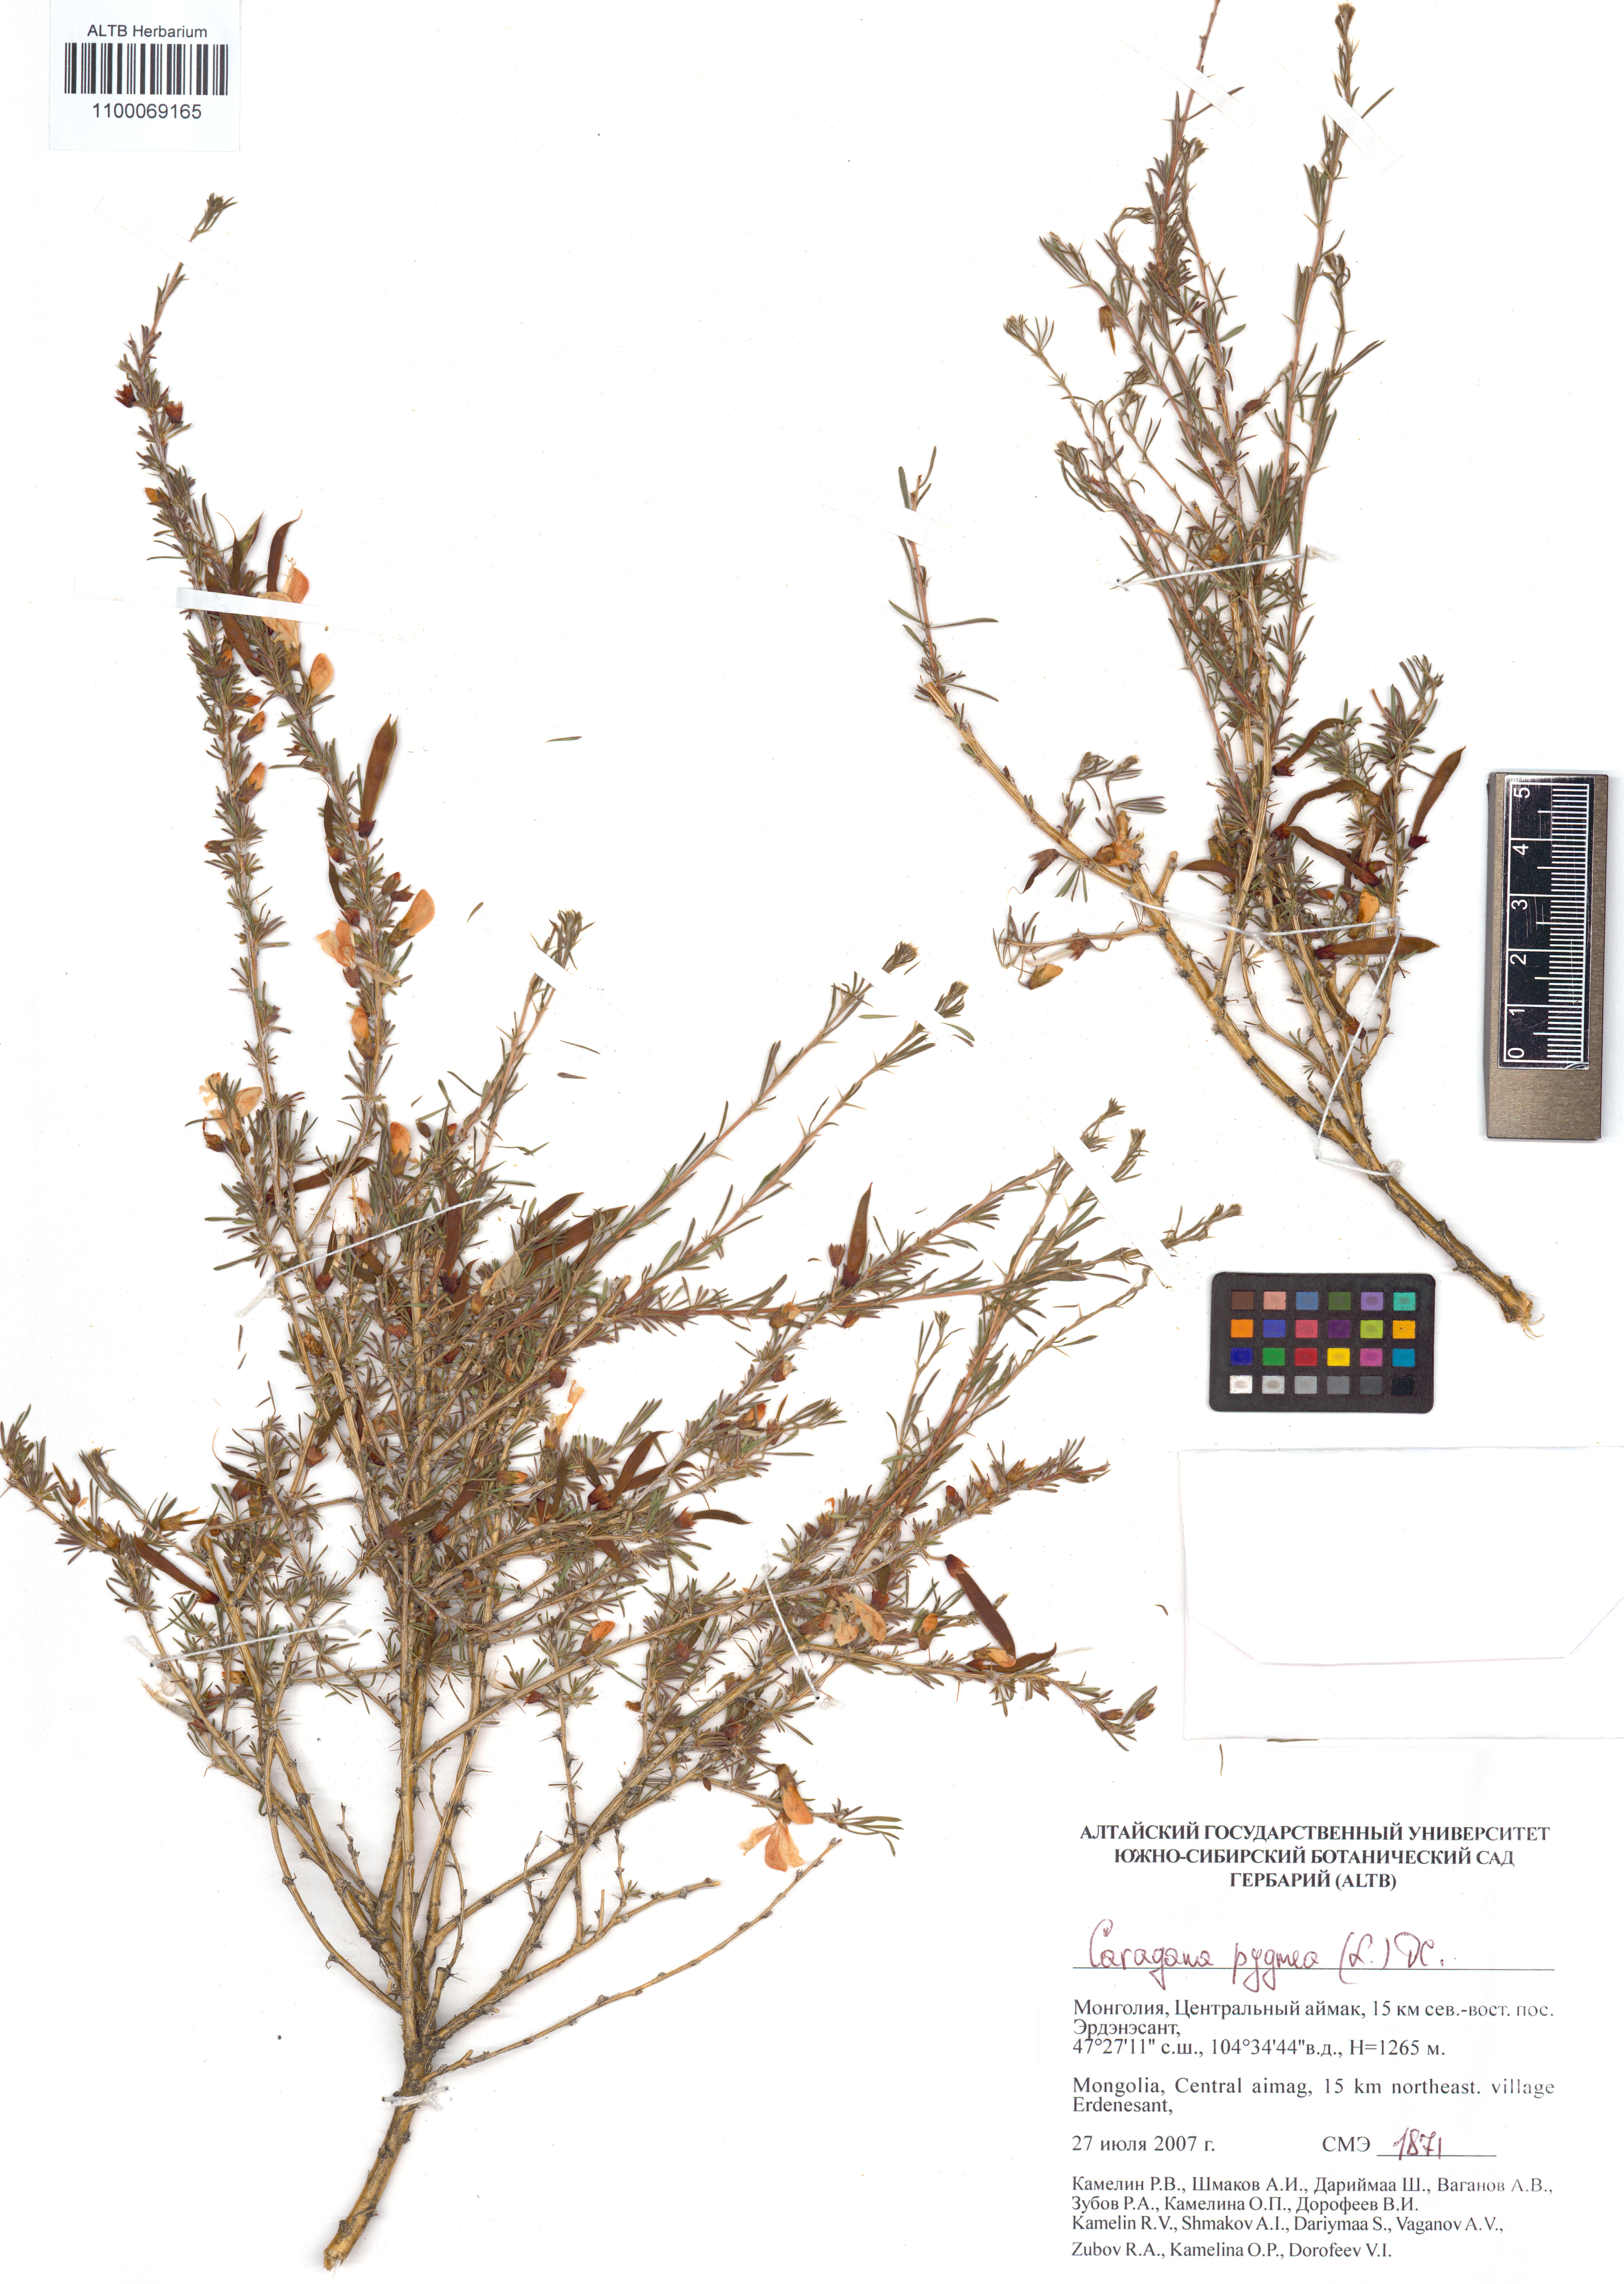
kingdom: Plantae
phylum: Tracheophyta
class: Magnoliopsida
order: Fabales
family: Fabaceae
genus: Caragana
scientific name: Caragana pygmaea
